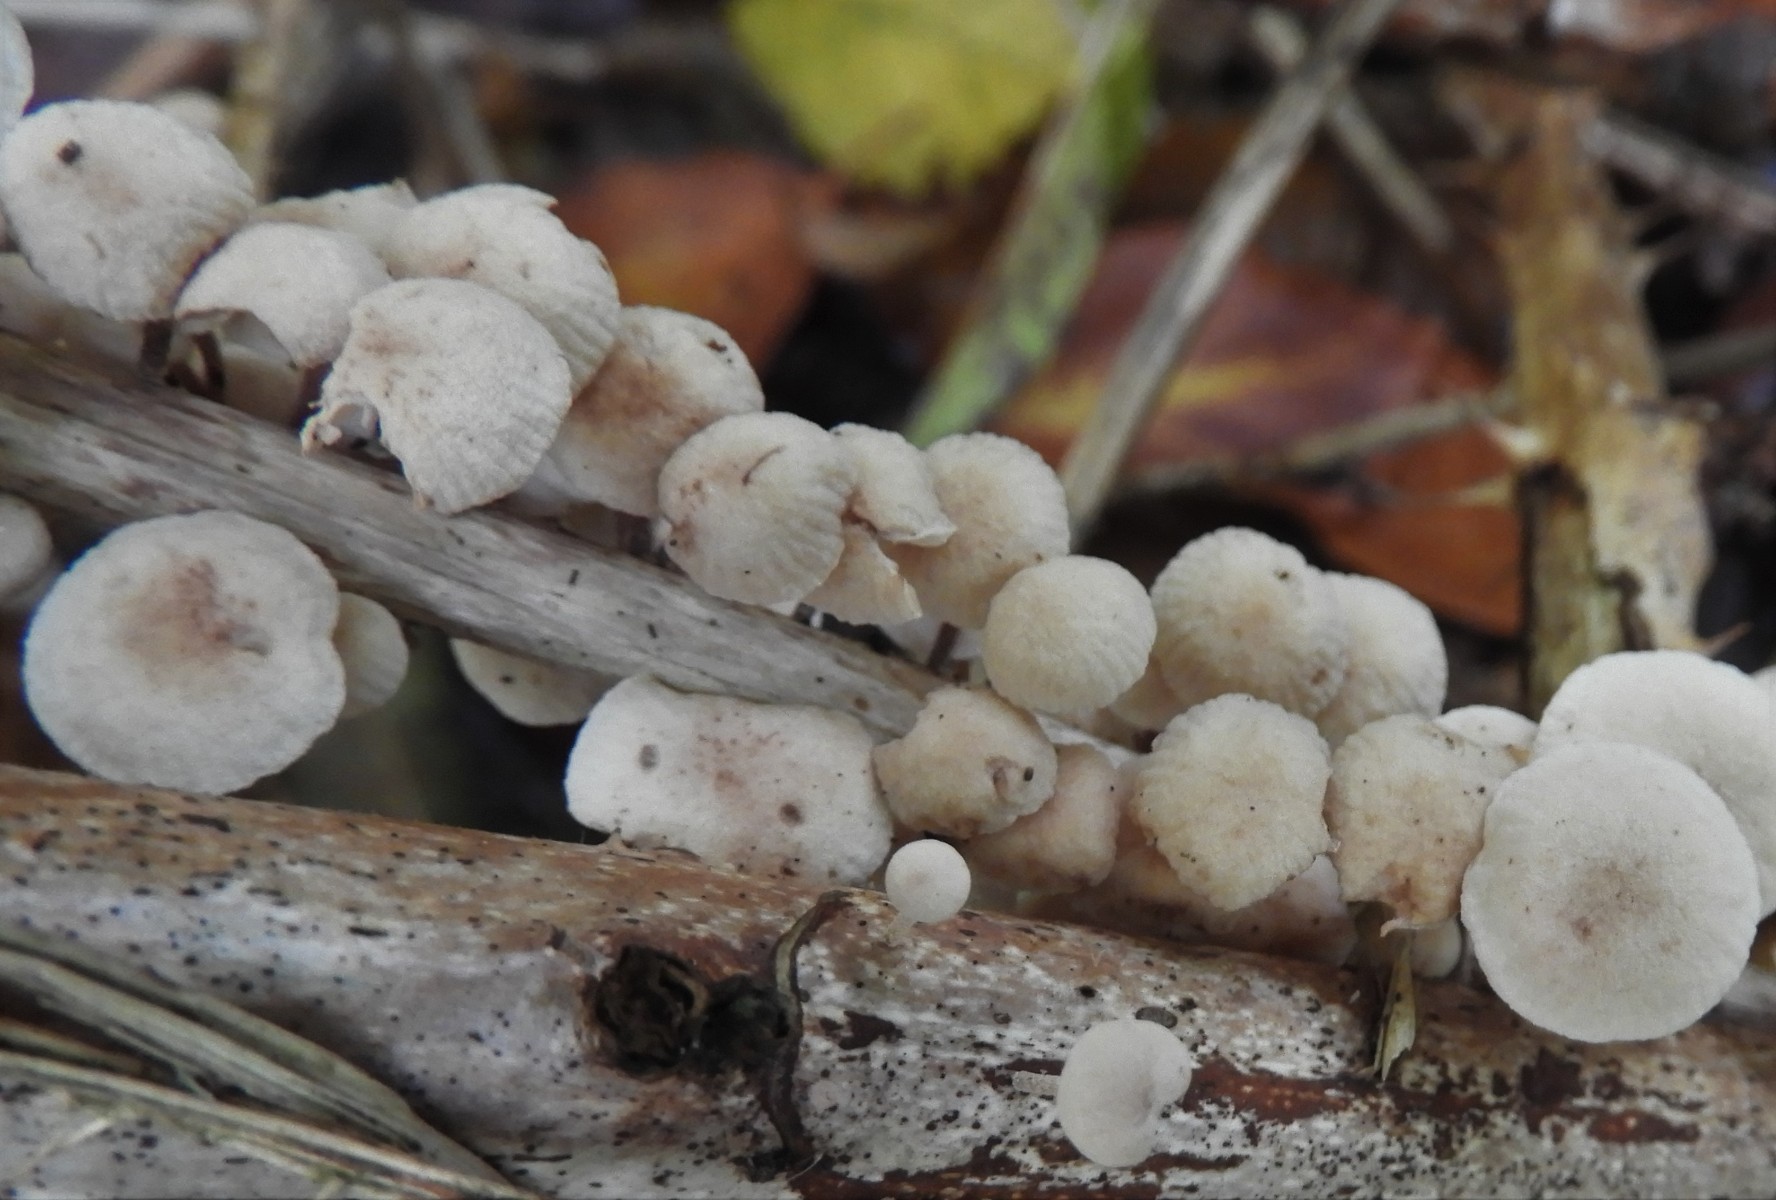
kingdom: Fungi
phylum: Basidiomycota
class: Agaricomycetes
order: Agaricales
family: Omphalotaceae
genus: Collybiopsis
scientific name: Collybiopsis ramealis
